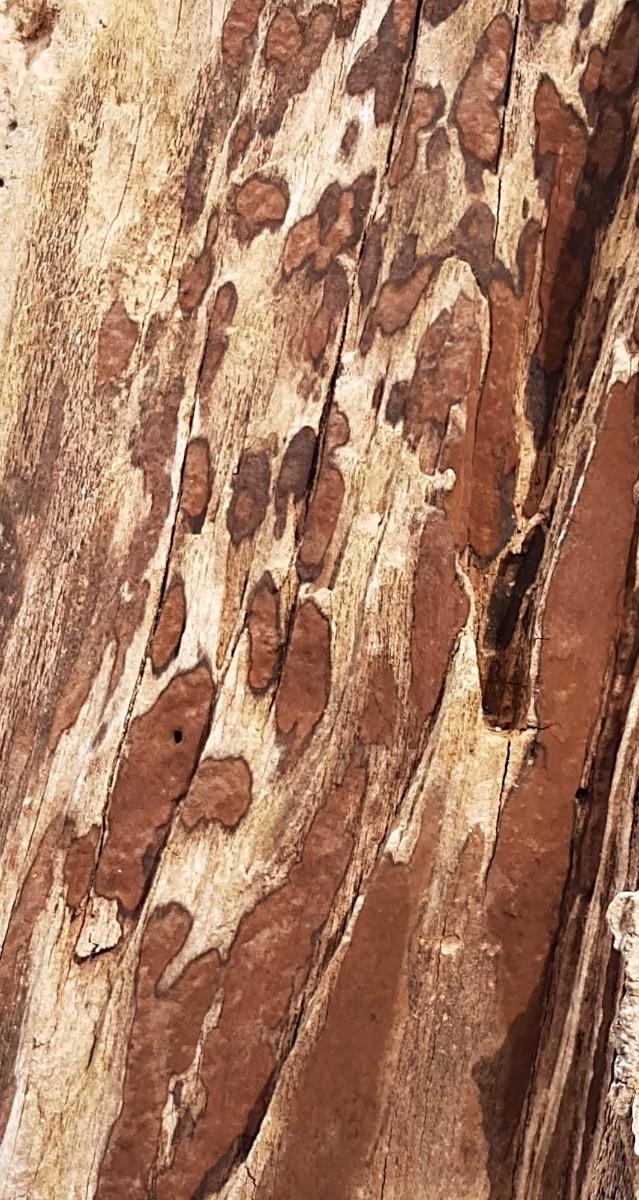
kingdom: Fungi
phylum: Ascomycota
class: Sordariomycetes
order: Xylariales
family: Hypoxylaceae
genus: Hypoxylon
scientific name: Hypoxylon petriniae
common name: nedsænket kulbær
